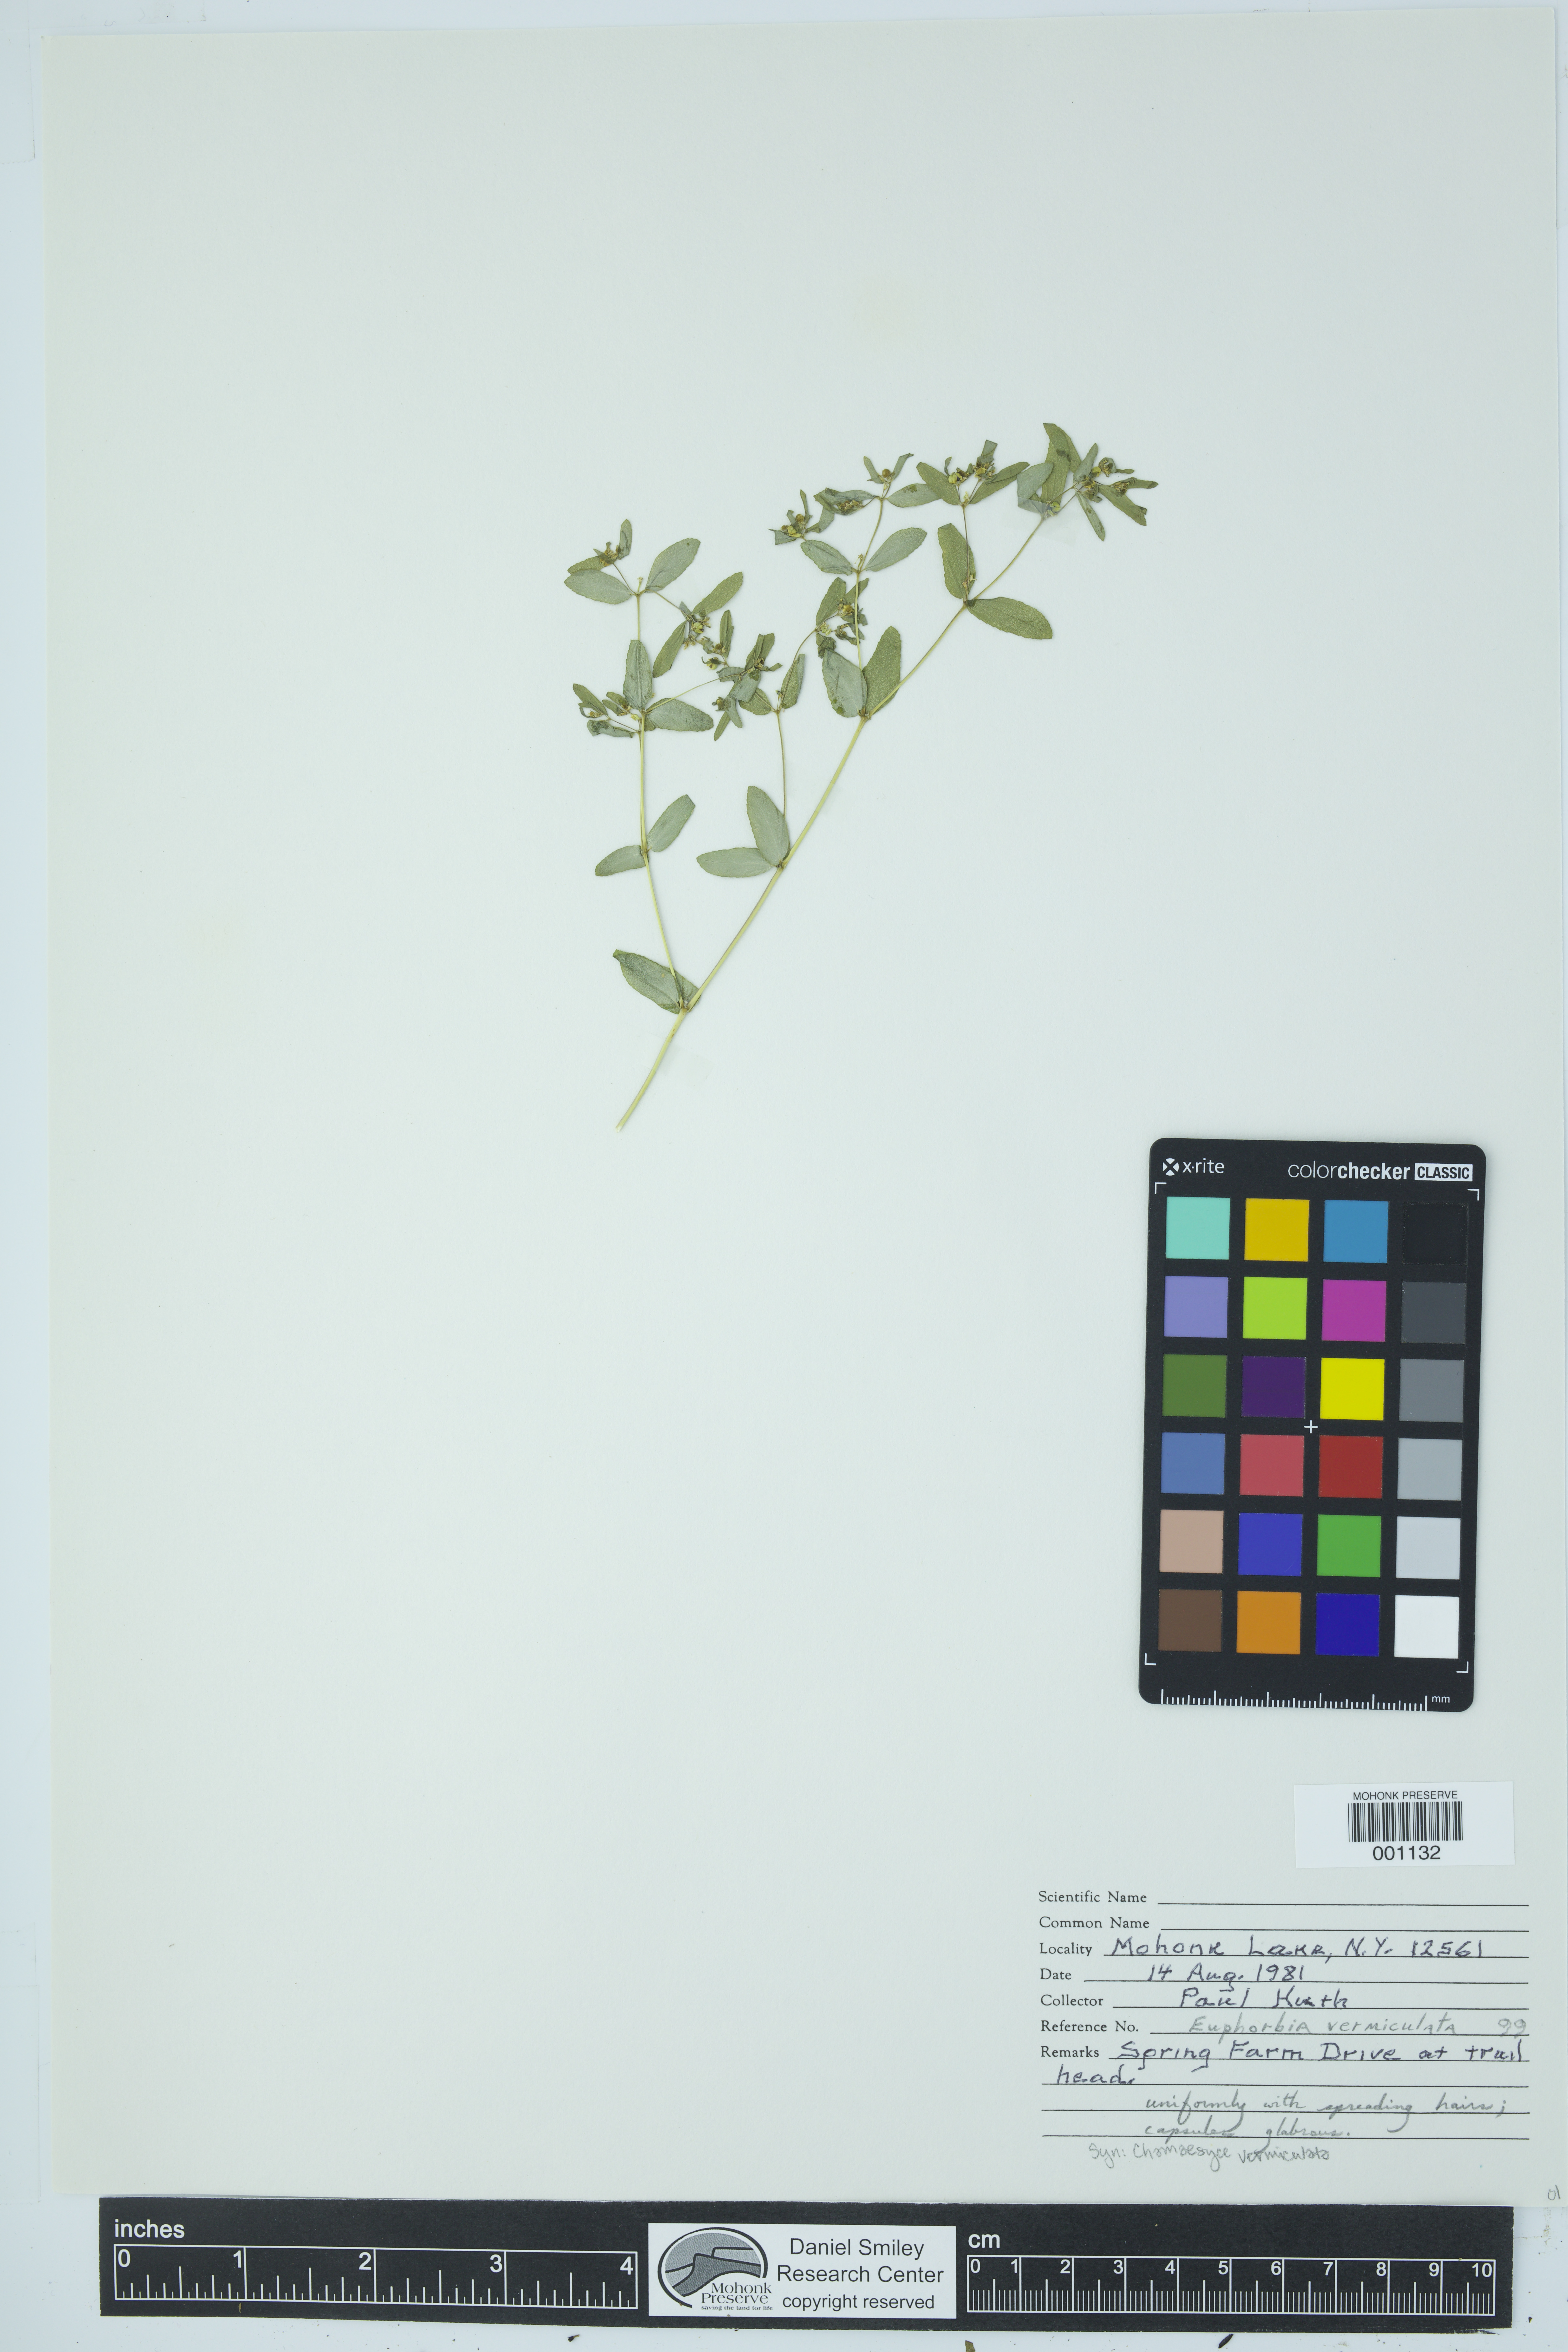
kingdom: Plantae
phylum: Tracheophyta
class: Magnoliopsida
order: Malpighiales
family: Euphorbiaceae
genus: Euphorbia
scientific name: Euphorbia vermiculata
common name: Hairy spurge
